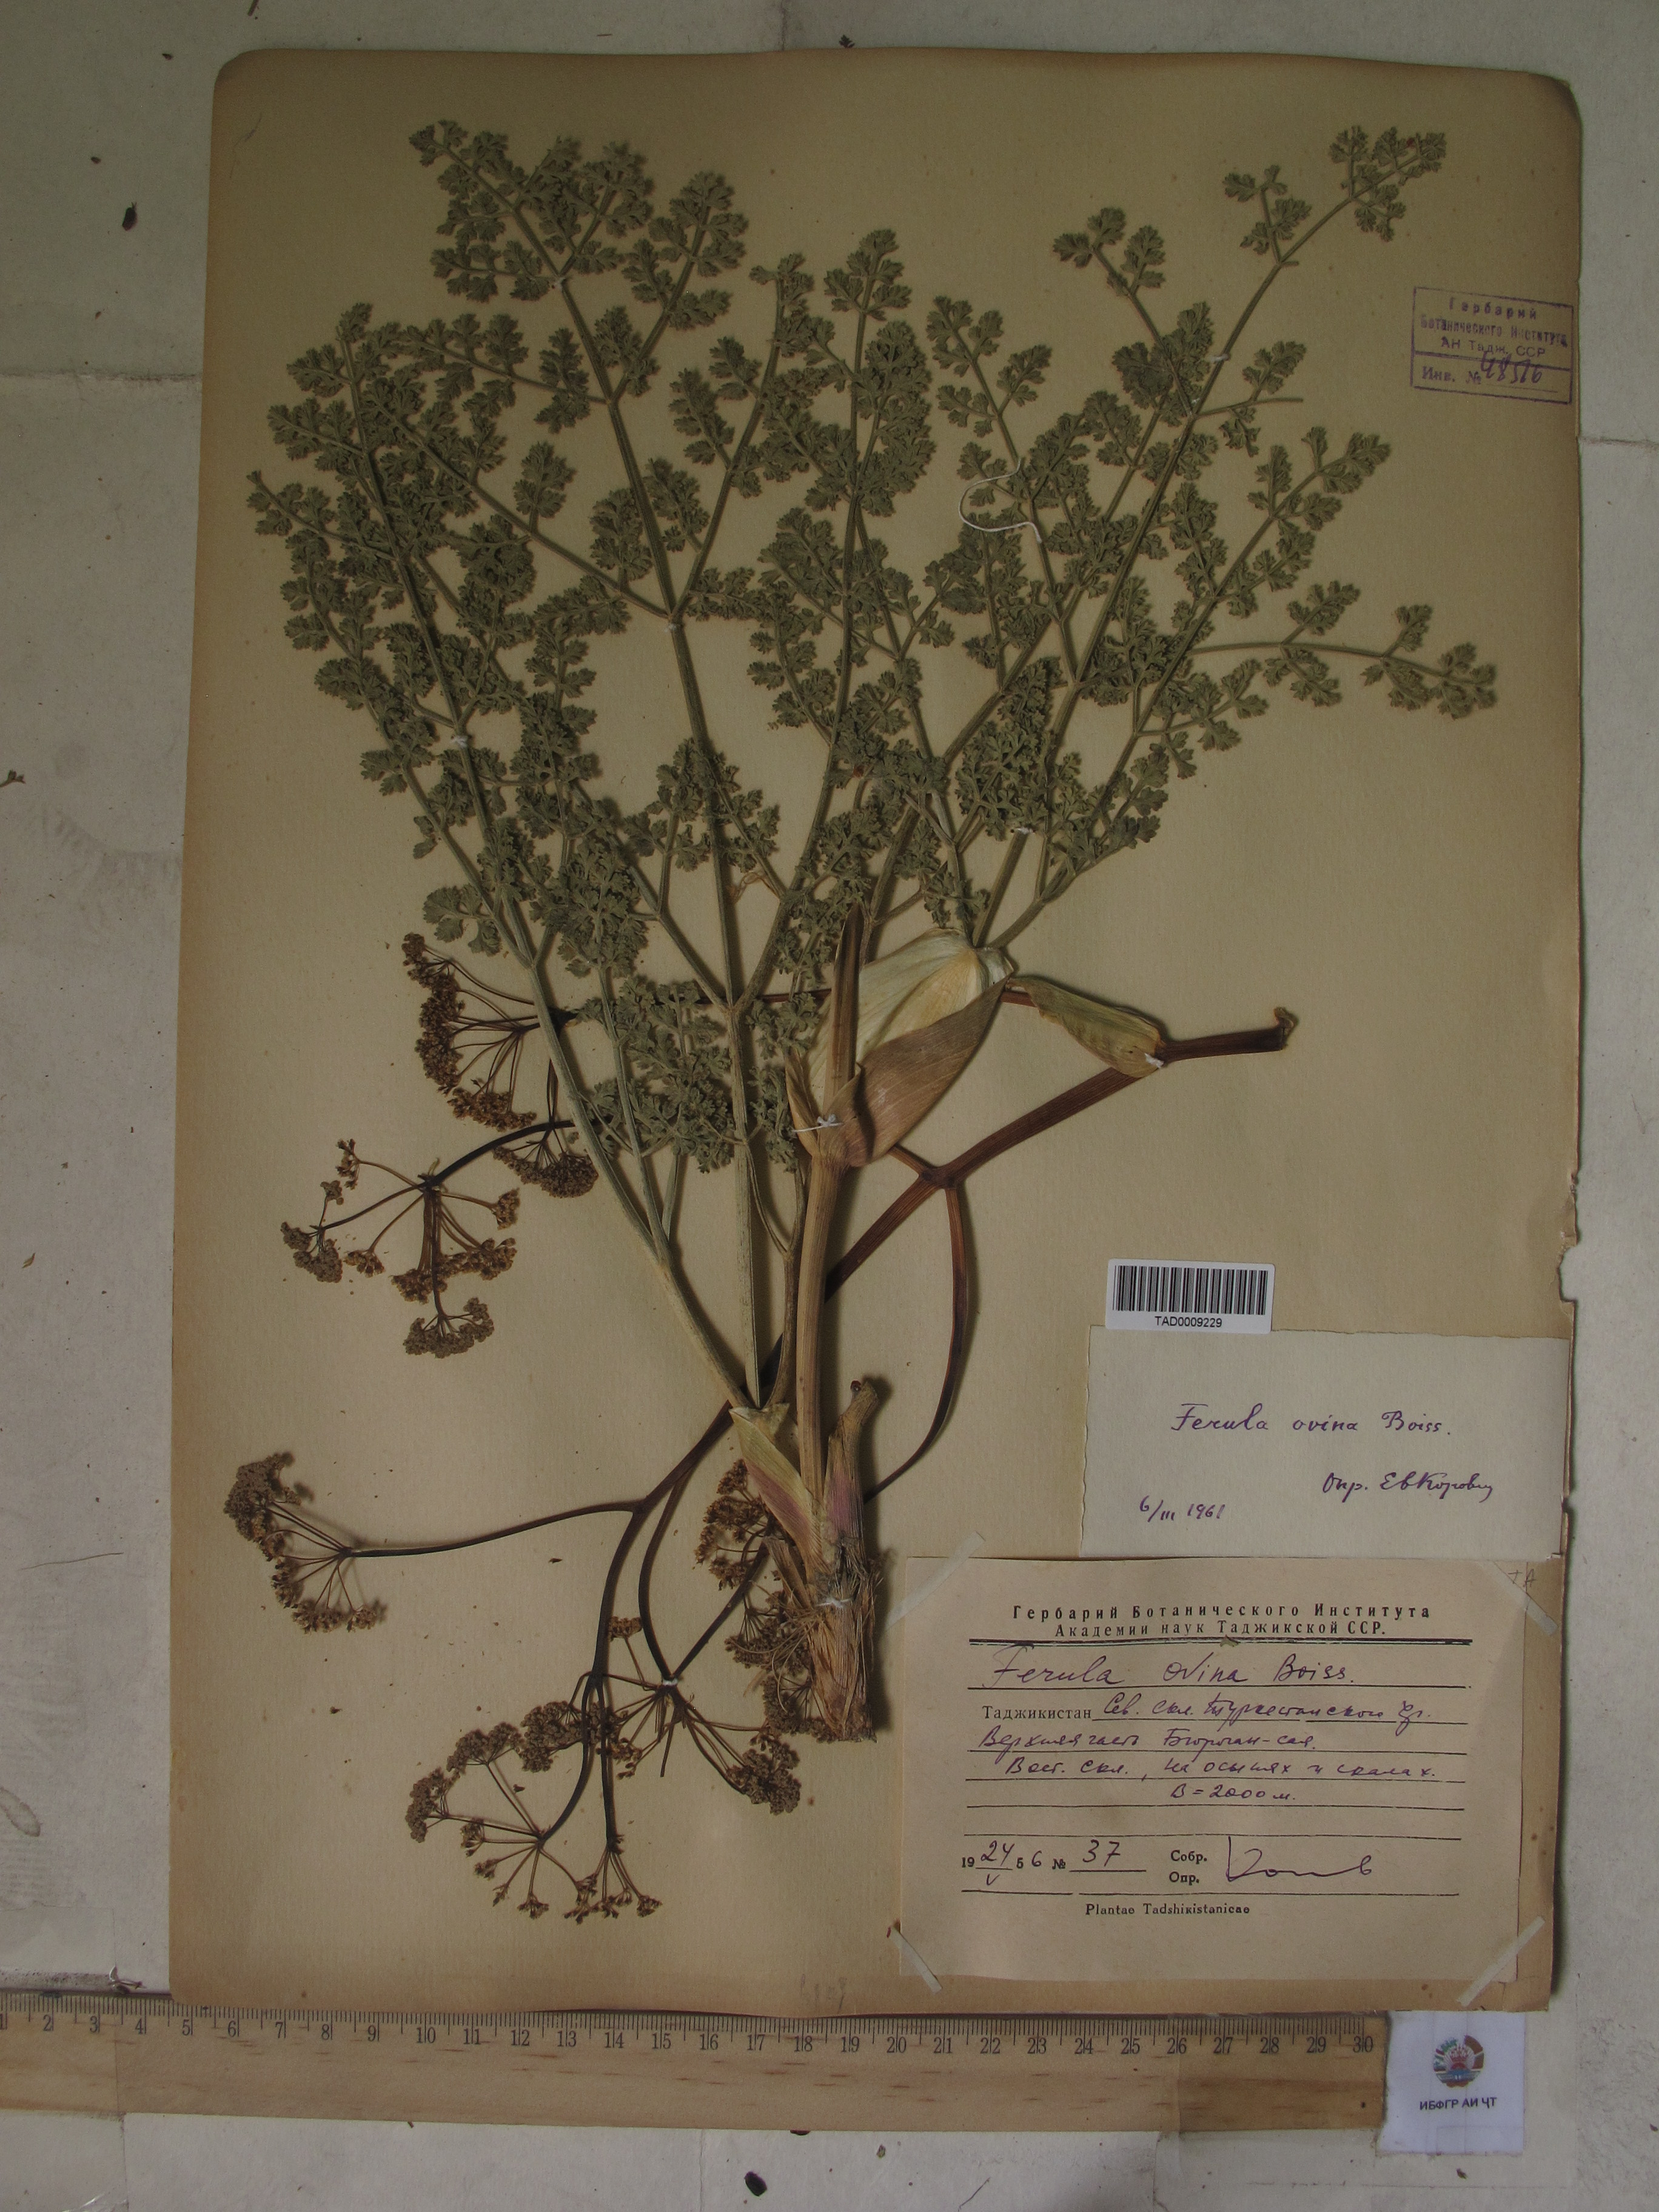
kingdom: Plantae
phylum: Tracheophyta
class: Magnoliopsida
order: Apiales
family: Apiaceae
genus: Ferula
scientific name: Ferula ovina
